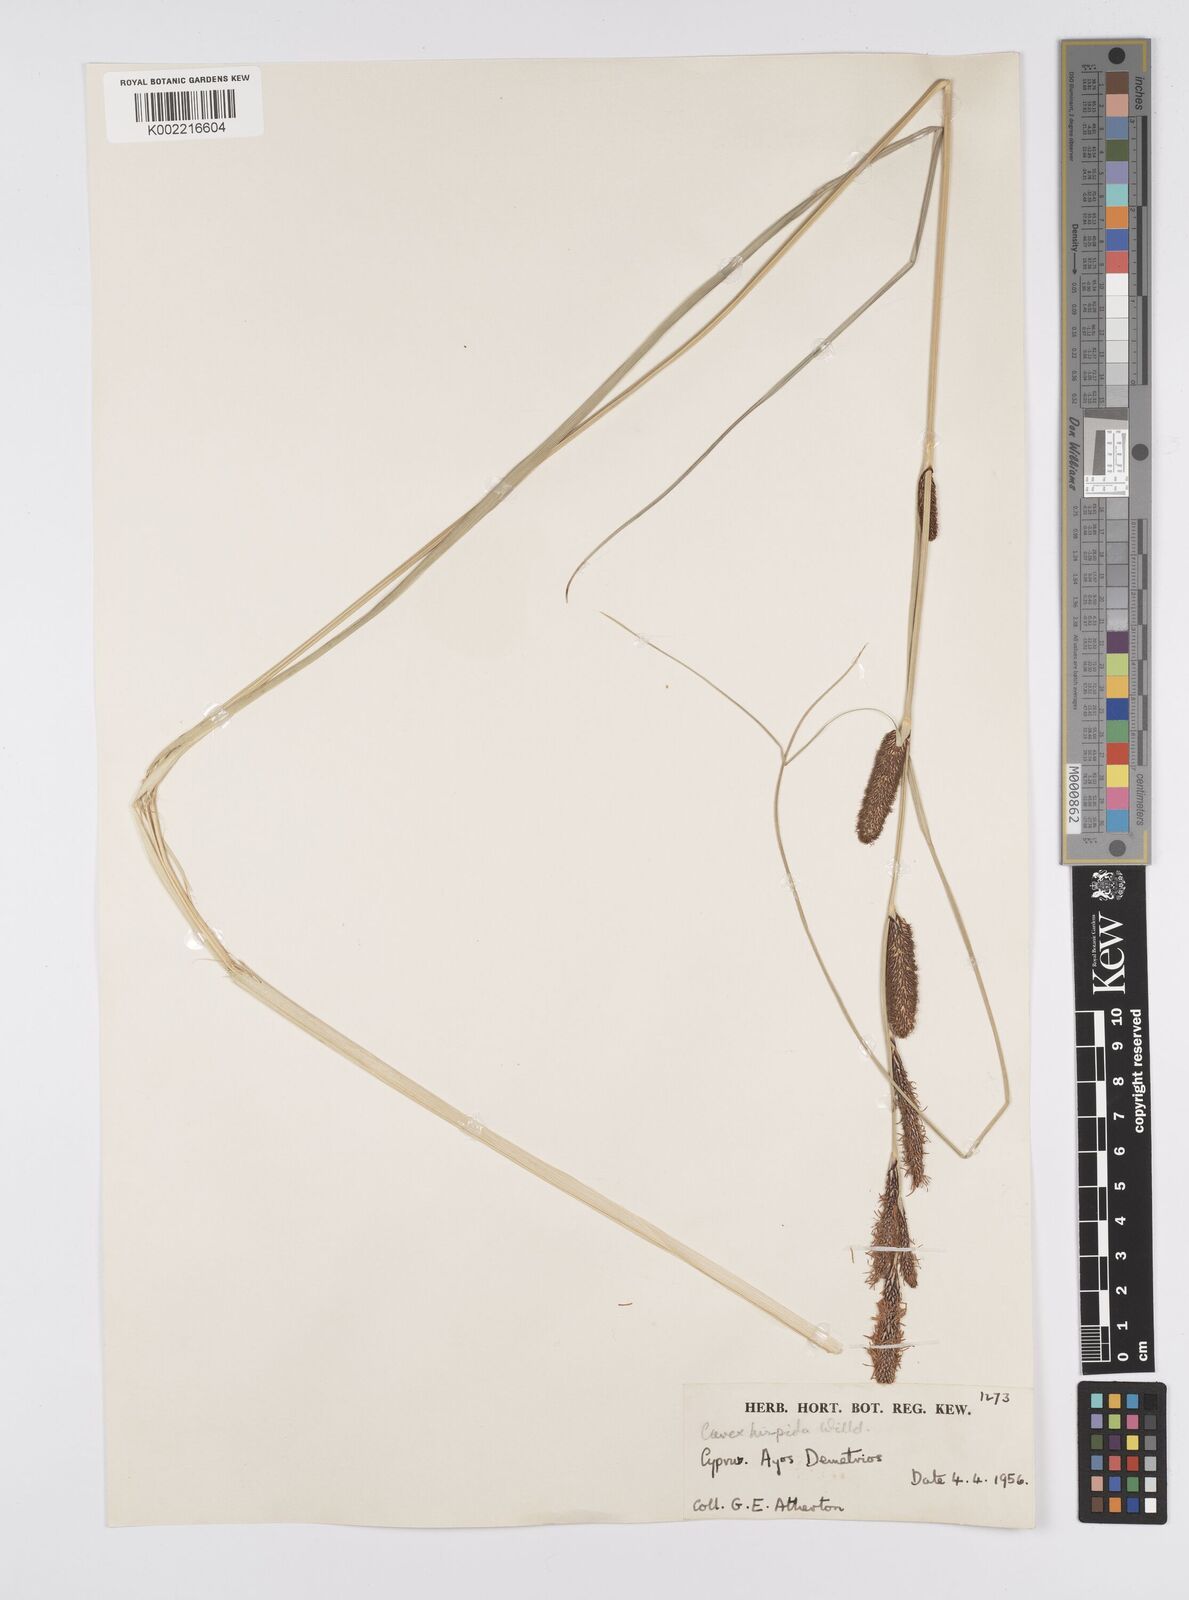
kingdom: Plantae
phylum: Tracheophyta
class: Liliopsida
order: Poales
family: Cyperaceae
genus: Carex
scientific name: Carex hispida
